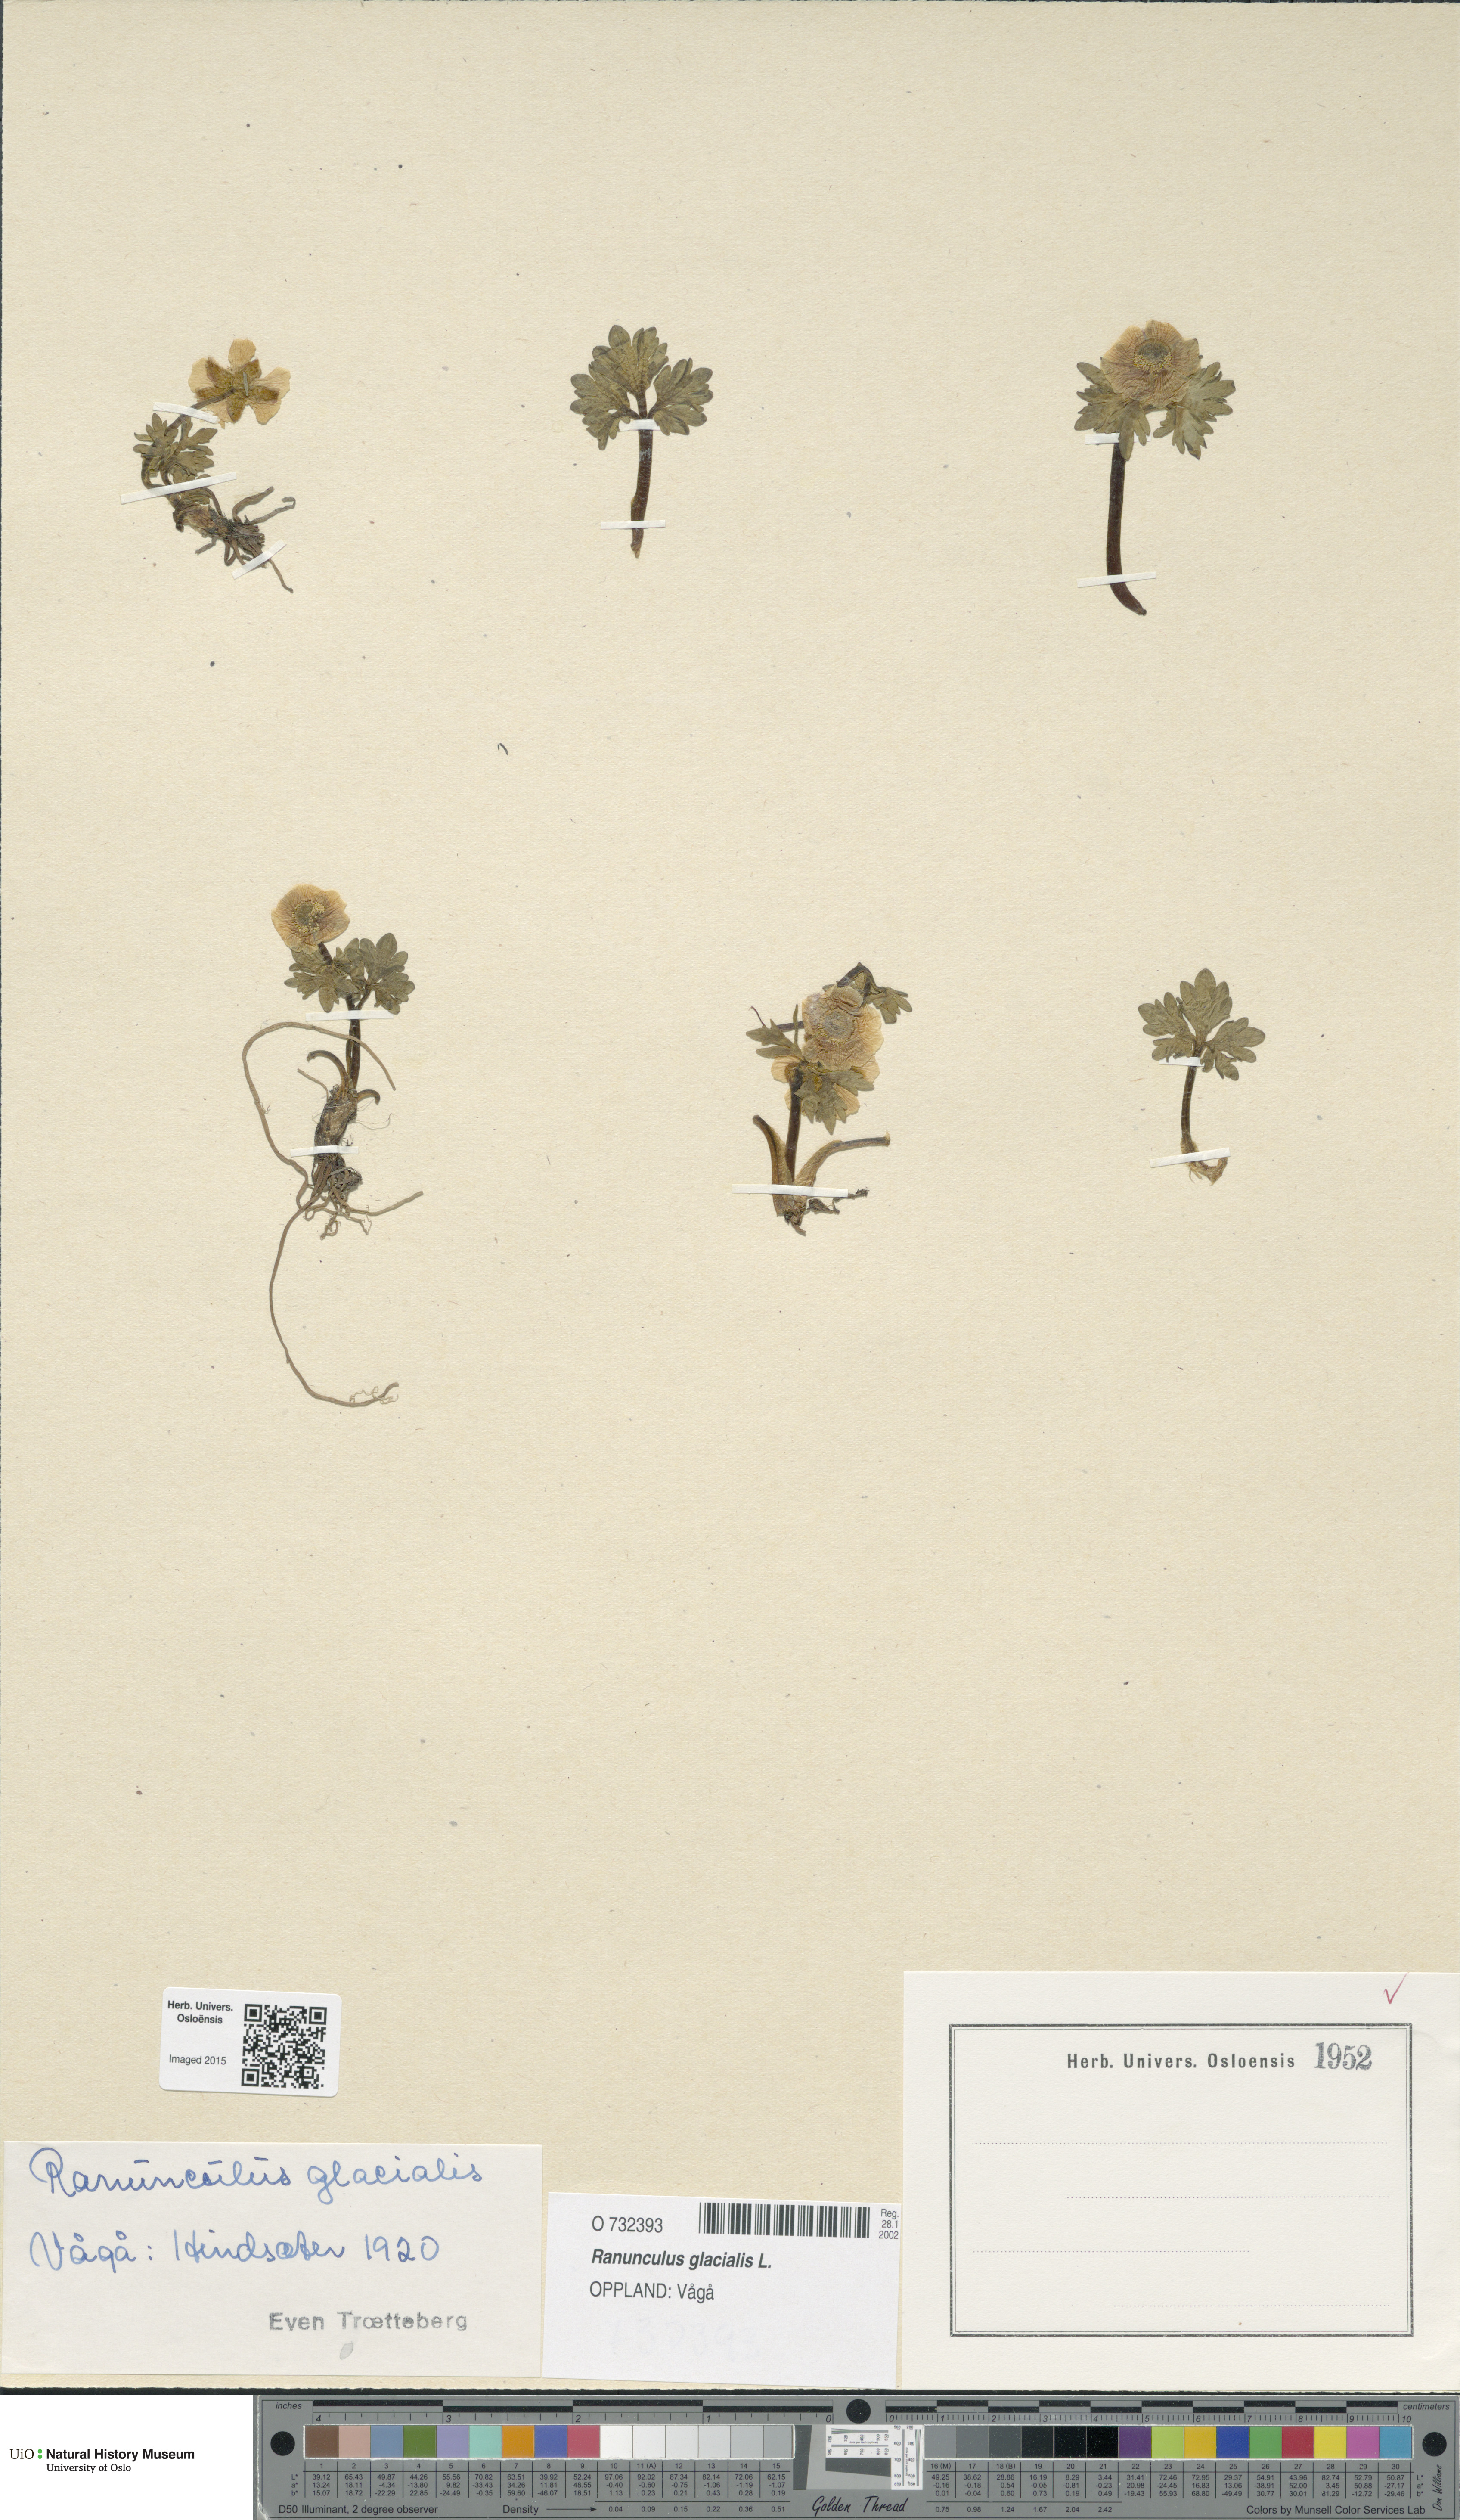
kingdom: Plantae
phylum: Tracheophyta
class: Magnoliopsida
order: Ranunculales
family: Ranunculaceae
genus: Ranunculus
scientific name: Ranunculus glacialis
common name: Glacier buttercup
